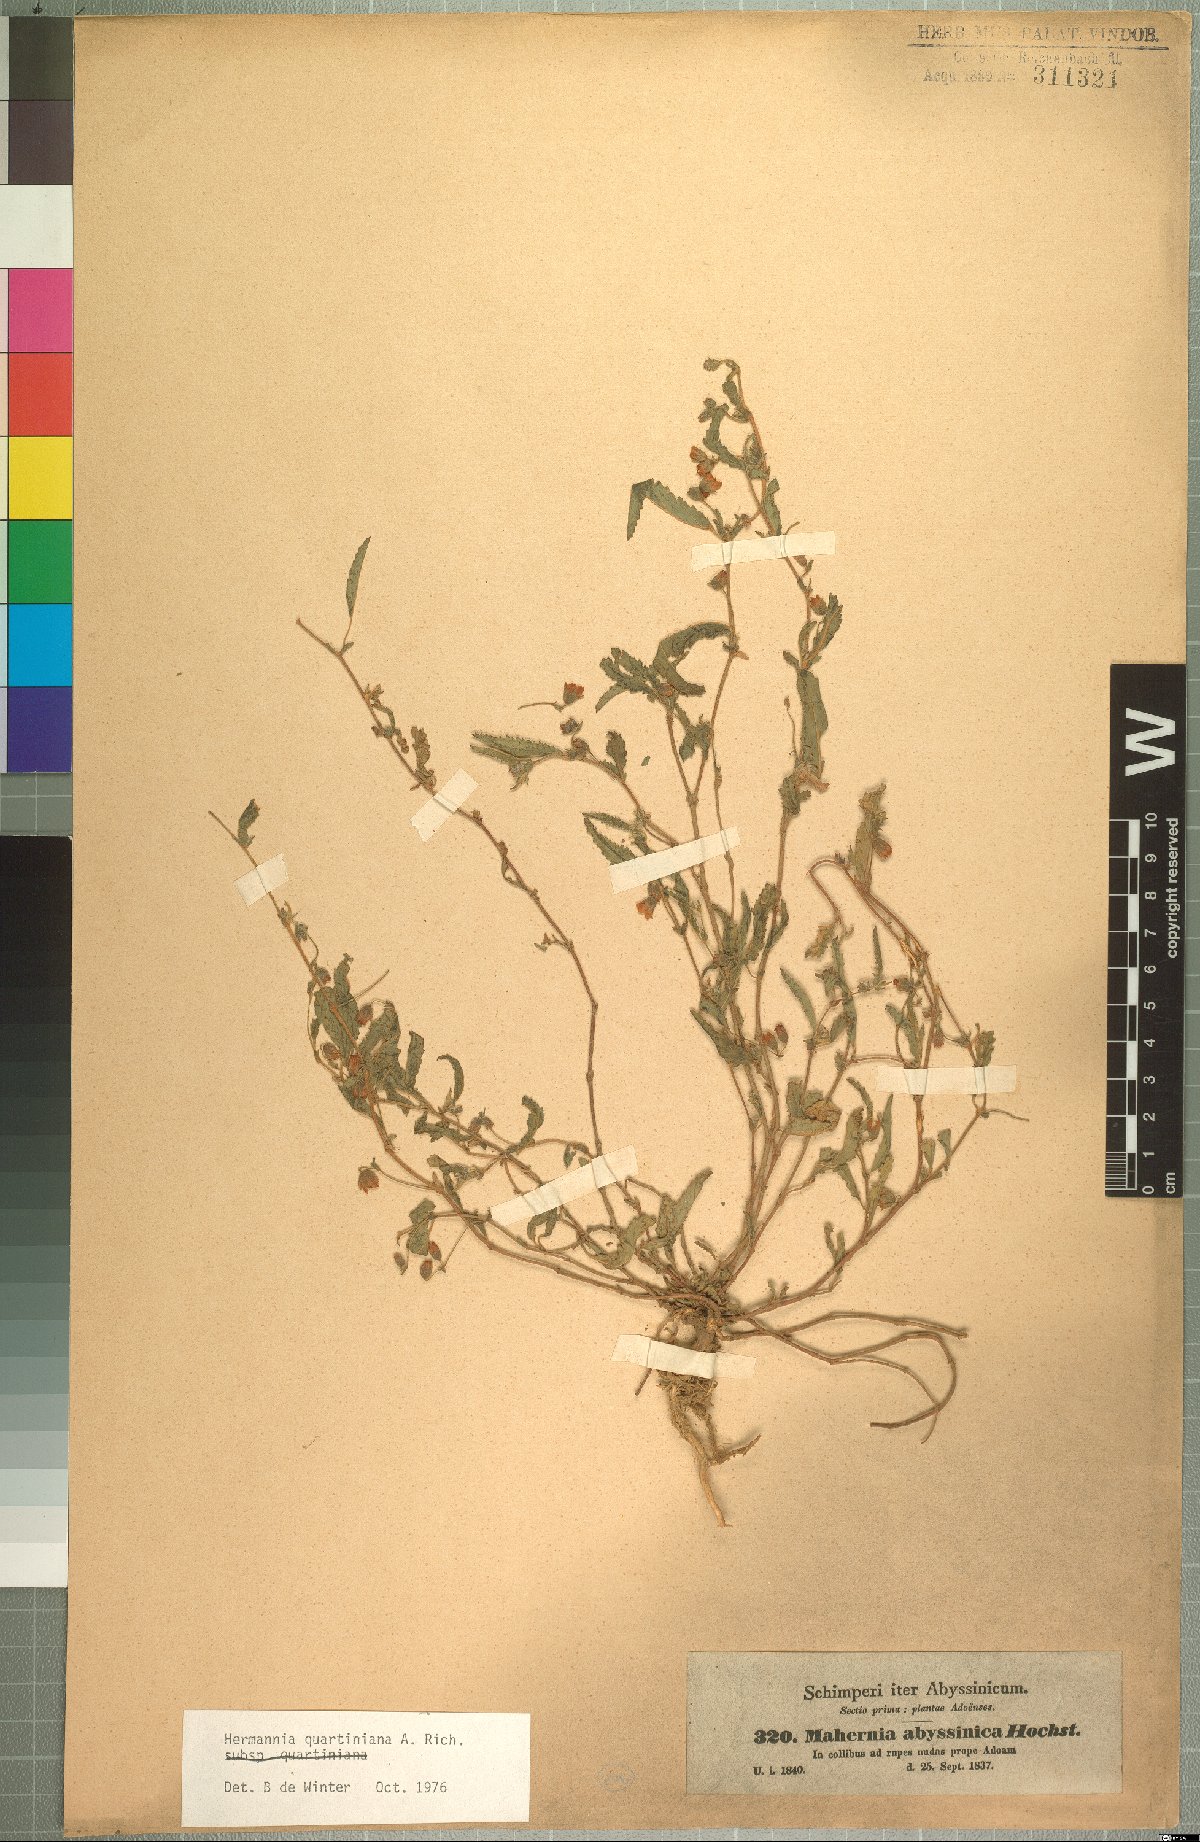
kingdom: Plantae
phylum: Tracheophyta
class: Magnoliopsida
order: Malvales
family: Malvaceae
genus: Hermannia
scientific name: Hermannia quartiniana
